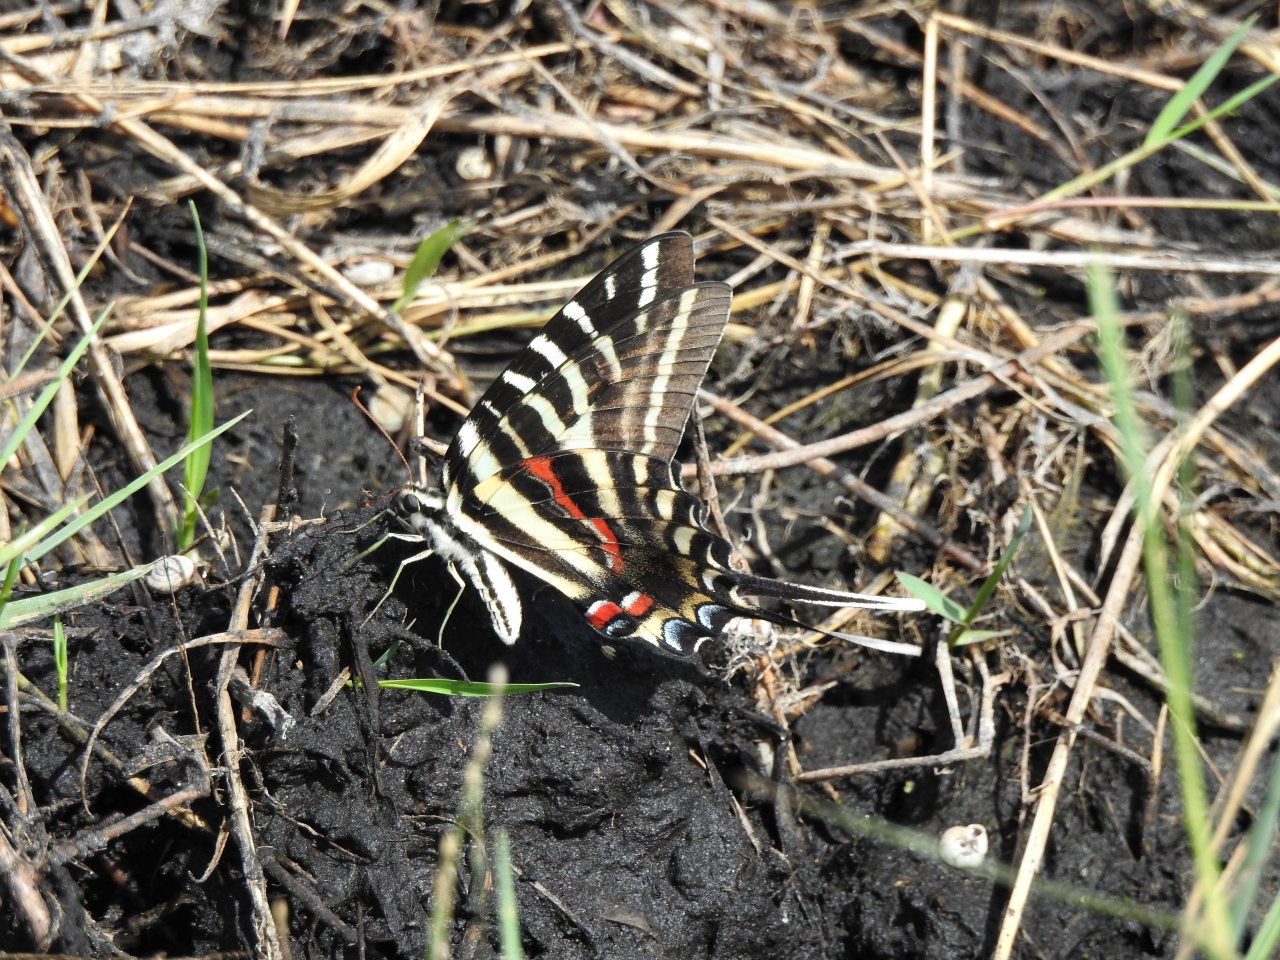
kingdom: Animalia
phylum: Arthropoda
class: Insecta
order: Lepidoptera
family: Papilionidae
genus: Protographium
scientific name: Protographium marcellus
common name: Zebra Swallowtail
